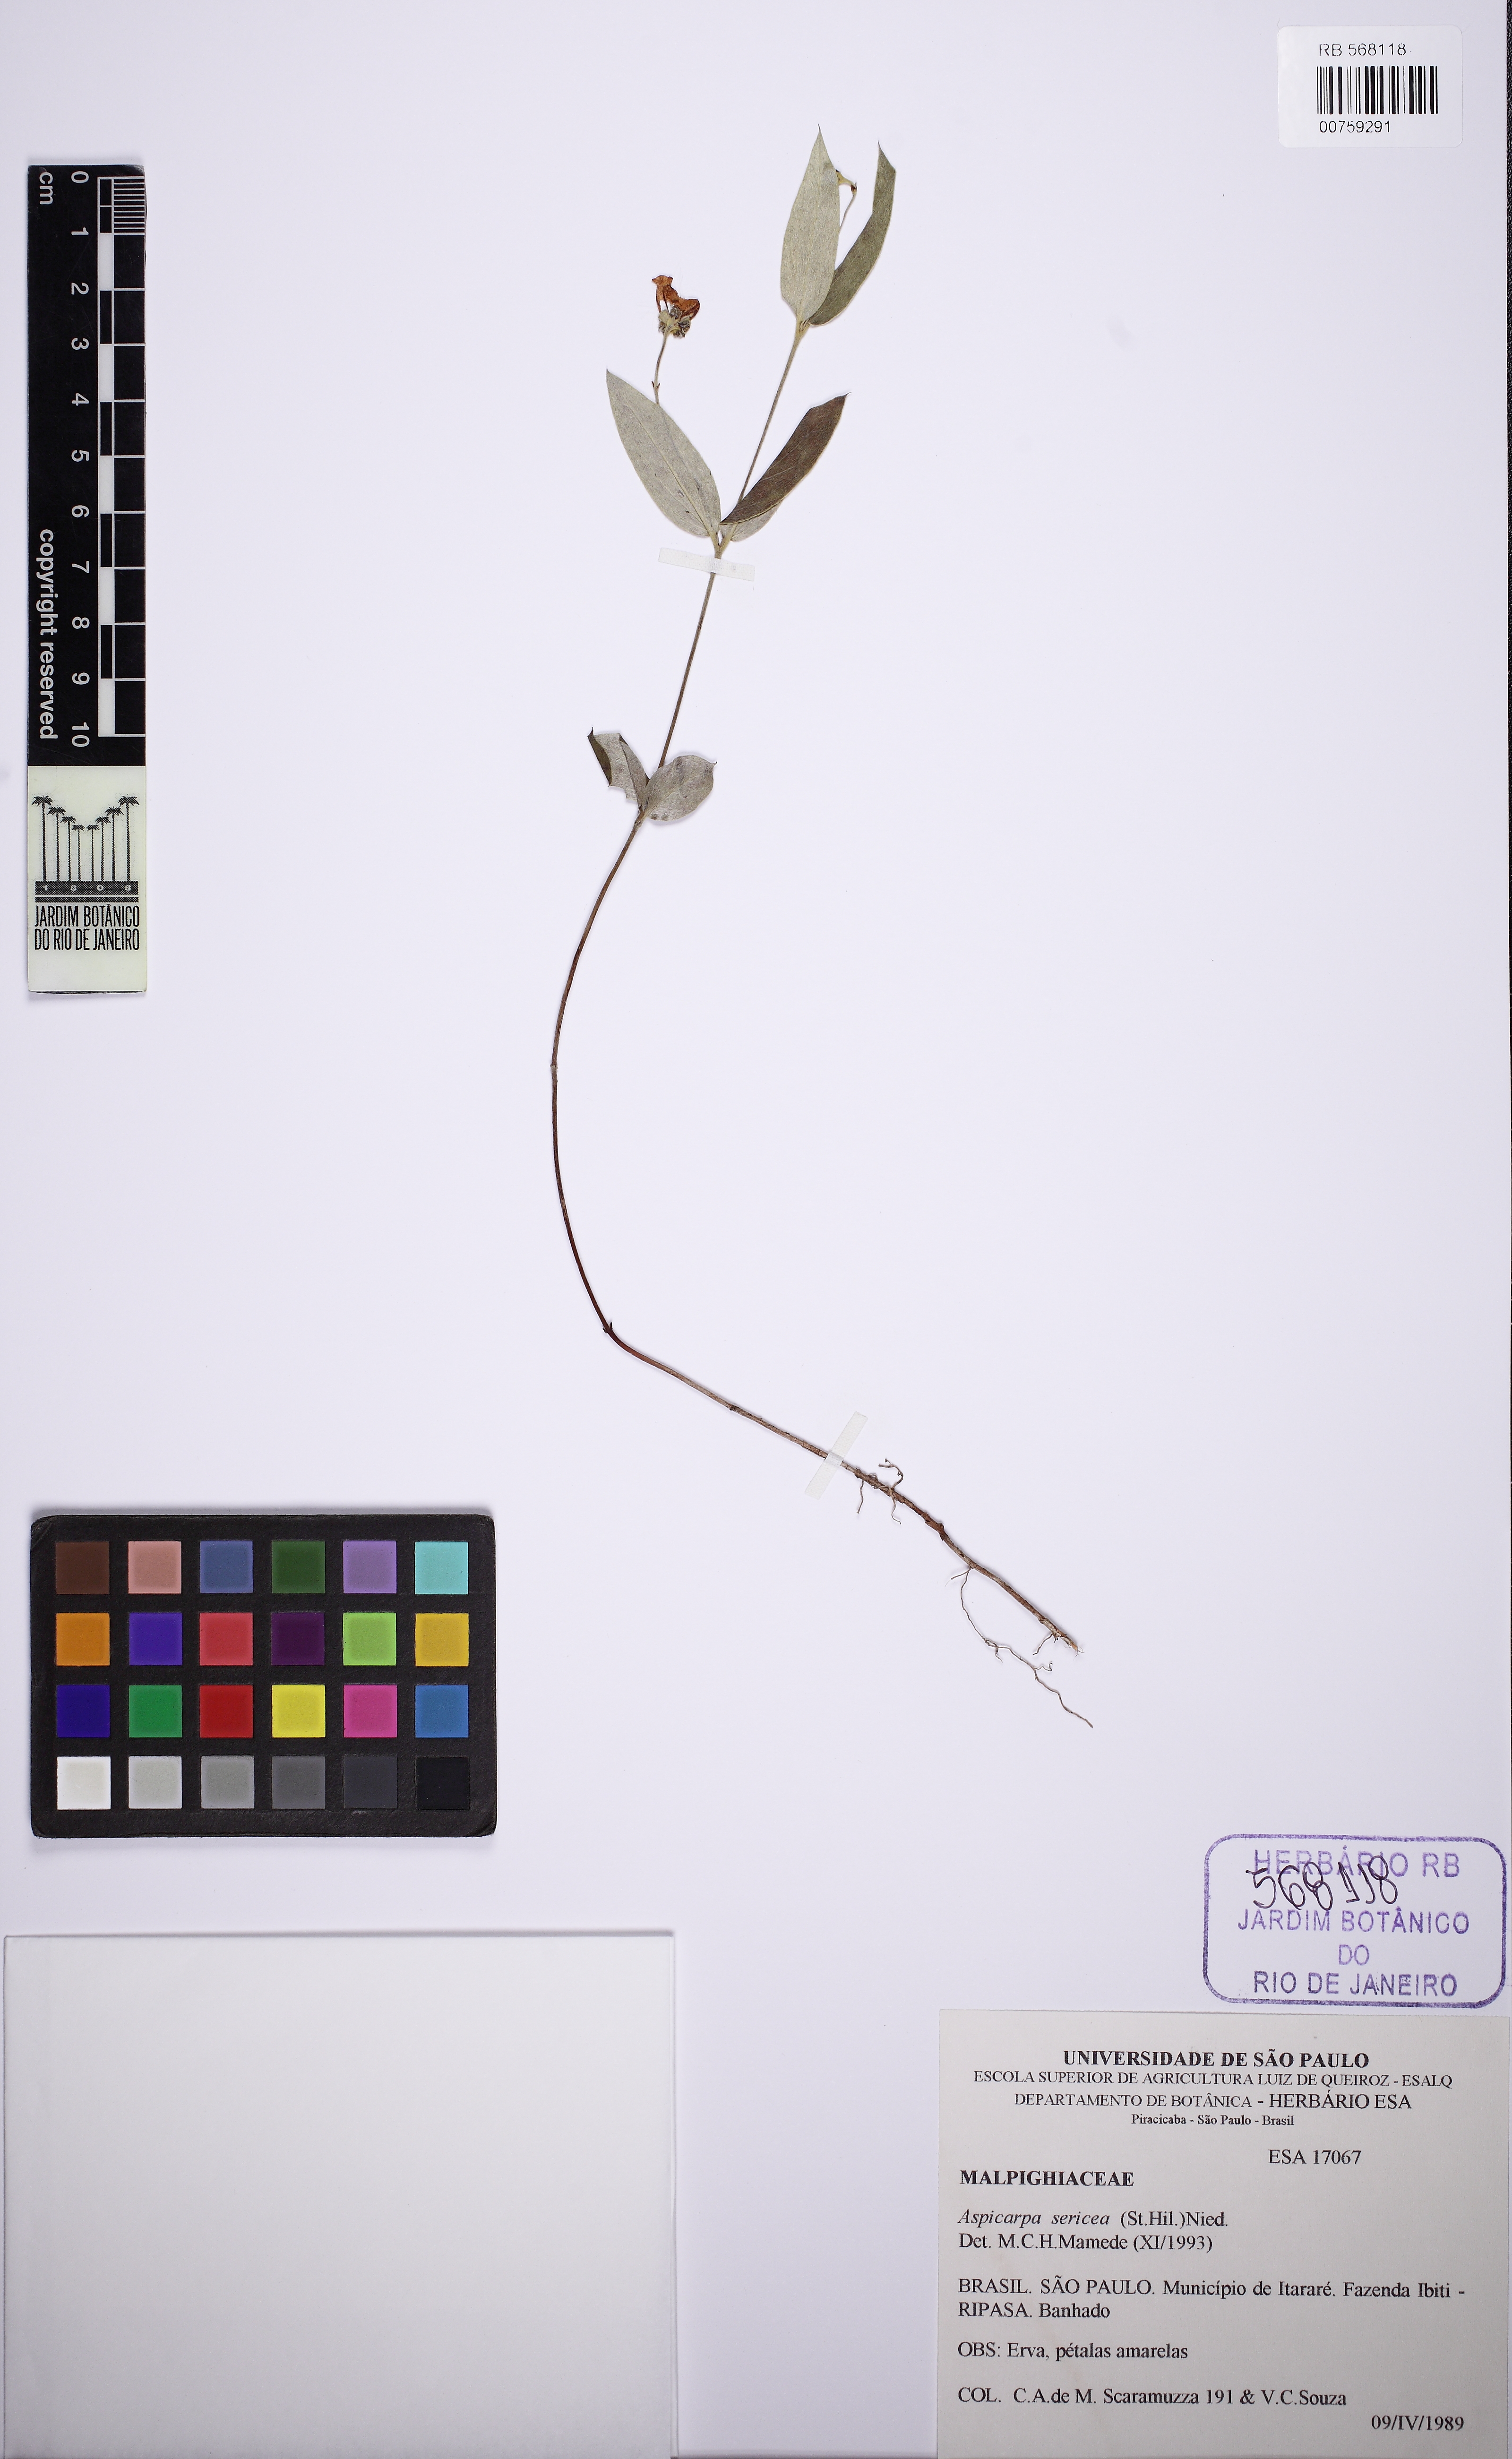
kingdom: Plantae
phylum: Tracheophyta
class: Magnoliopsida
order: Malpighiales
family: Malpighiaceae
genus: Aspicarpa
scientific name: Aspicarpa sericea
